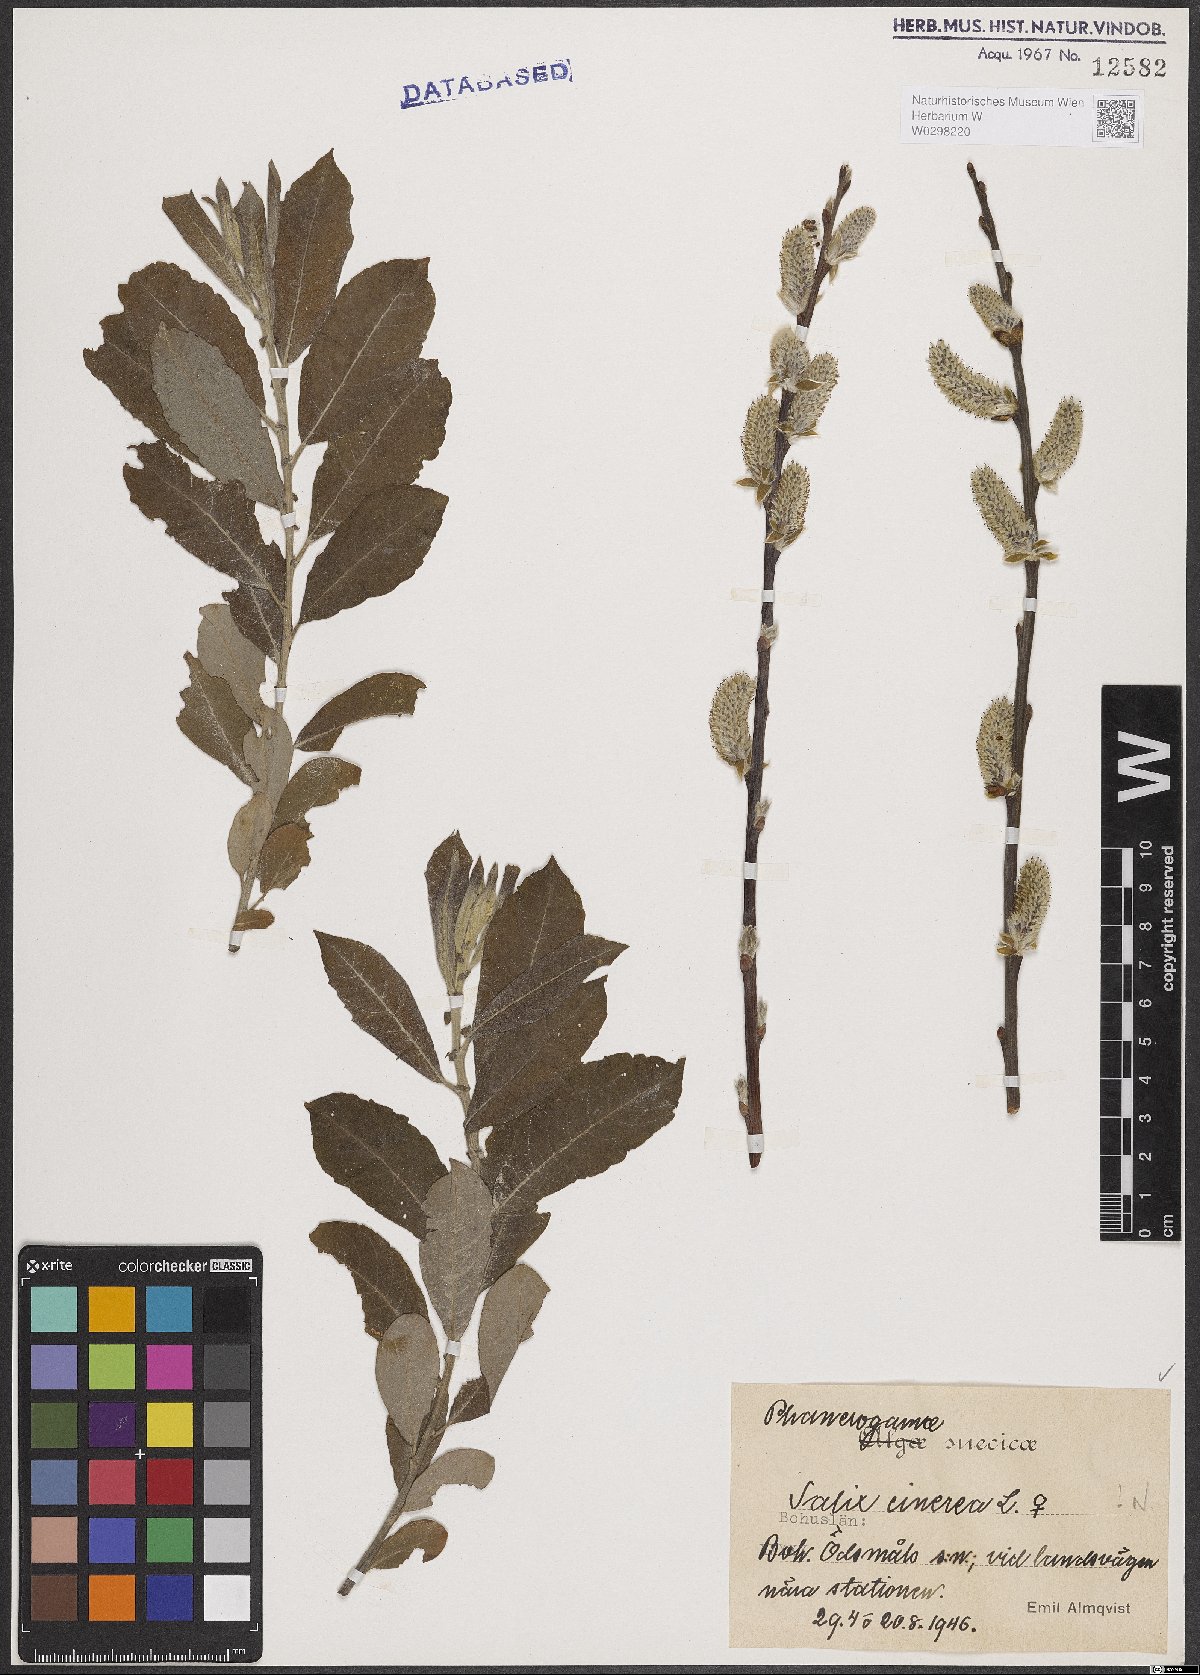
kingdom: Plantae
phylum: Tracheophyta
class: Magnoliopsida
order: Malpighiales
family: Salicaceae
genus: Salix
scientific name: Salix cinerea
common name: Common sallow
